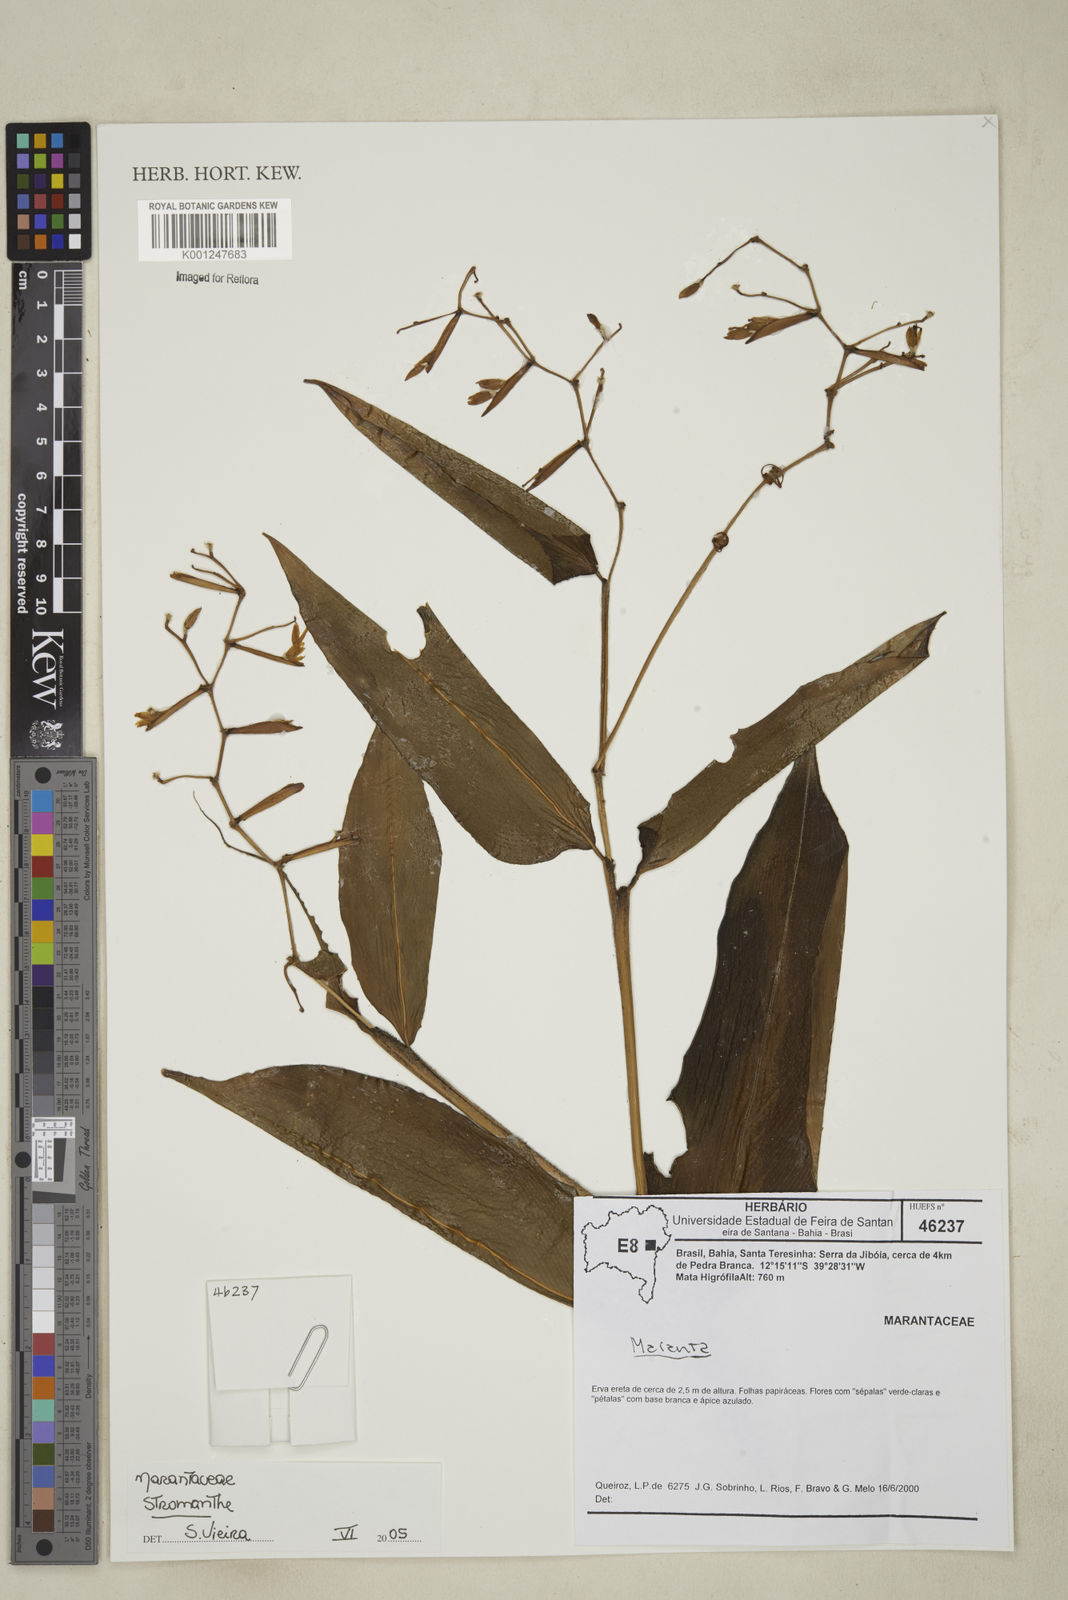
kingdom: Plantae
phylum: Tracheophyta
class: Liliopsida
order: Zingiberales
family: Marantaceae
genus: Stromanthe
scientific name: Stromanthe
